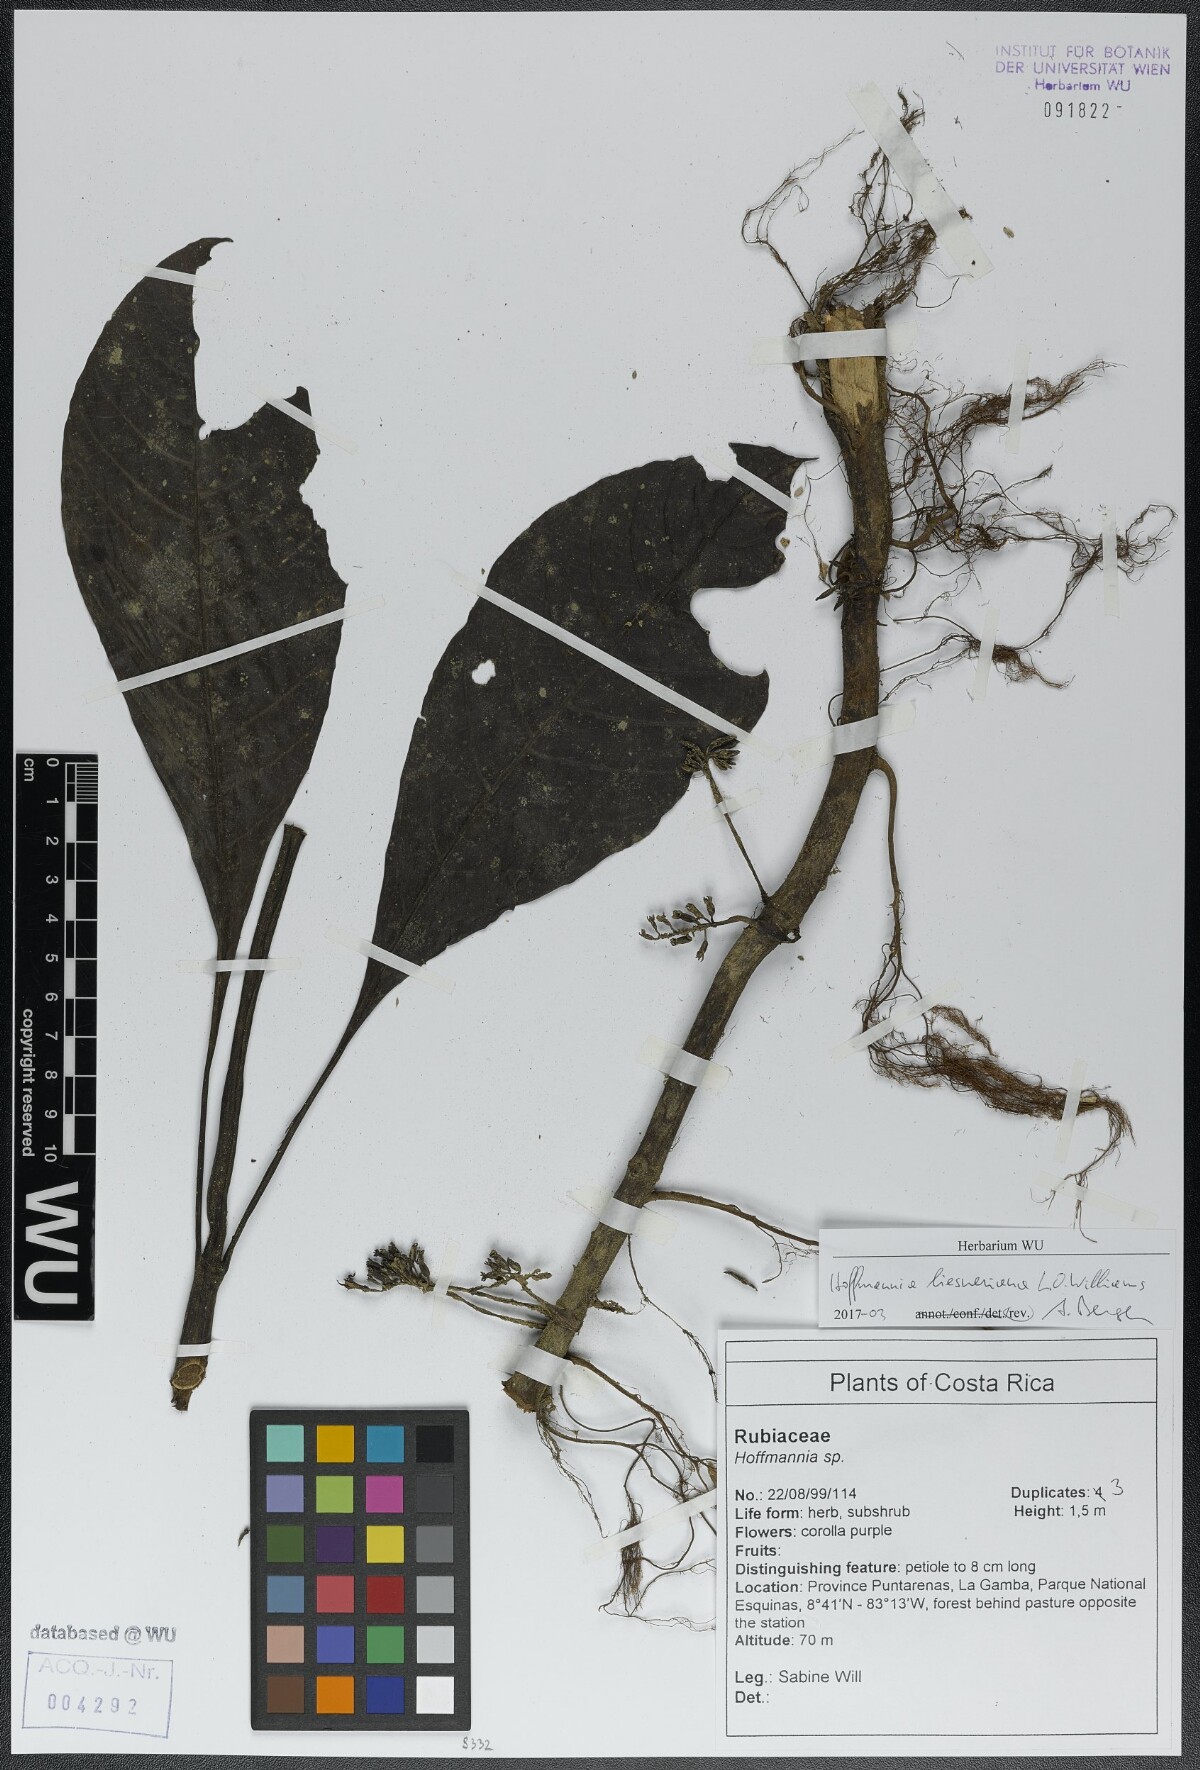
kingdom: Plantae
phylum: Tracheophyta
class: Magnoliopsida
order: Gentianales
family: Rubiaceae
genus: Hoffmannia
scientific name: Hoffmannia liesneriana
